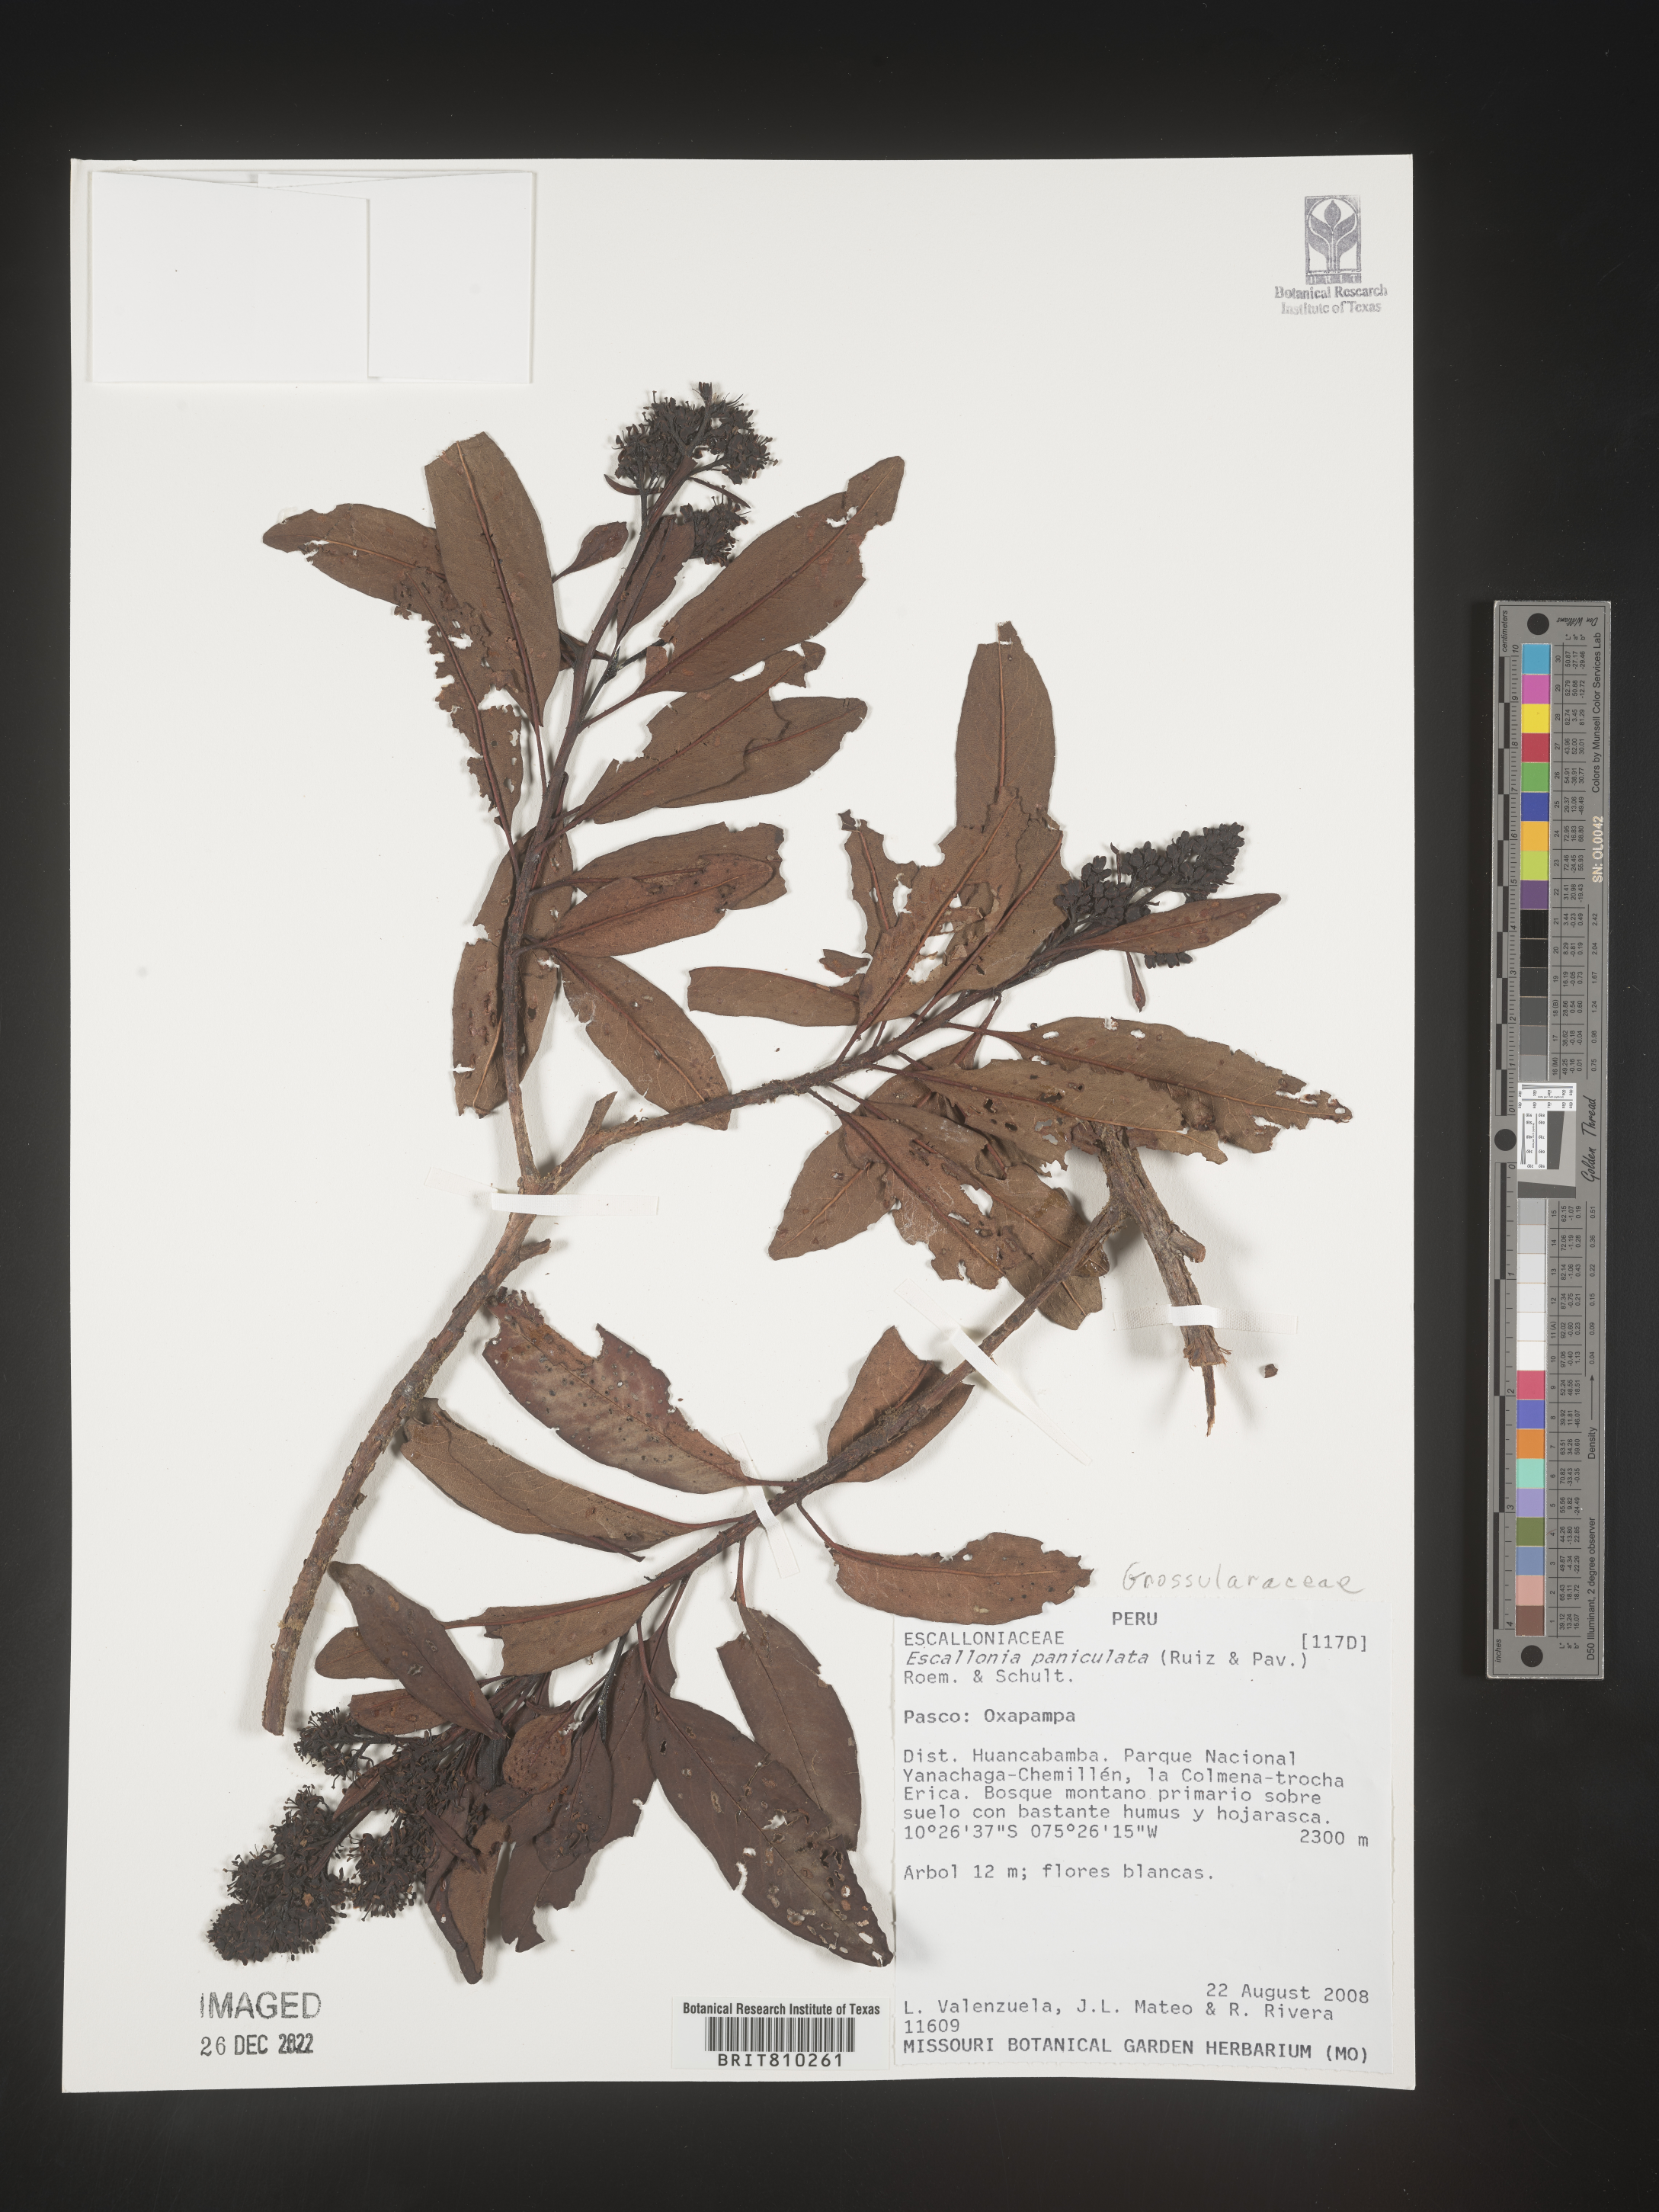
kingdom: Plantae
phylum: Tracheophyta
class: Magnoliopsida
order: Escalloniales
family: Escalloniaceae
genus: Escallonia
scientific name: Escallonia paniculata
